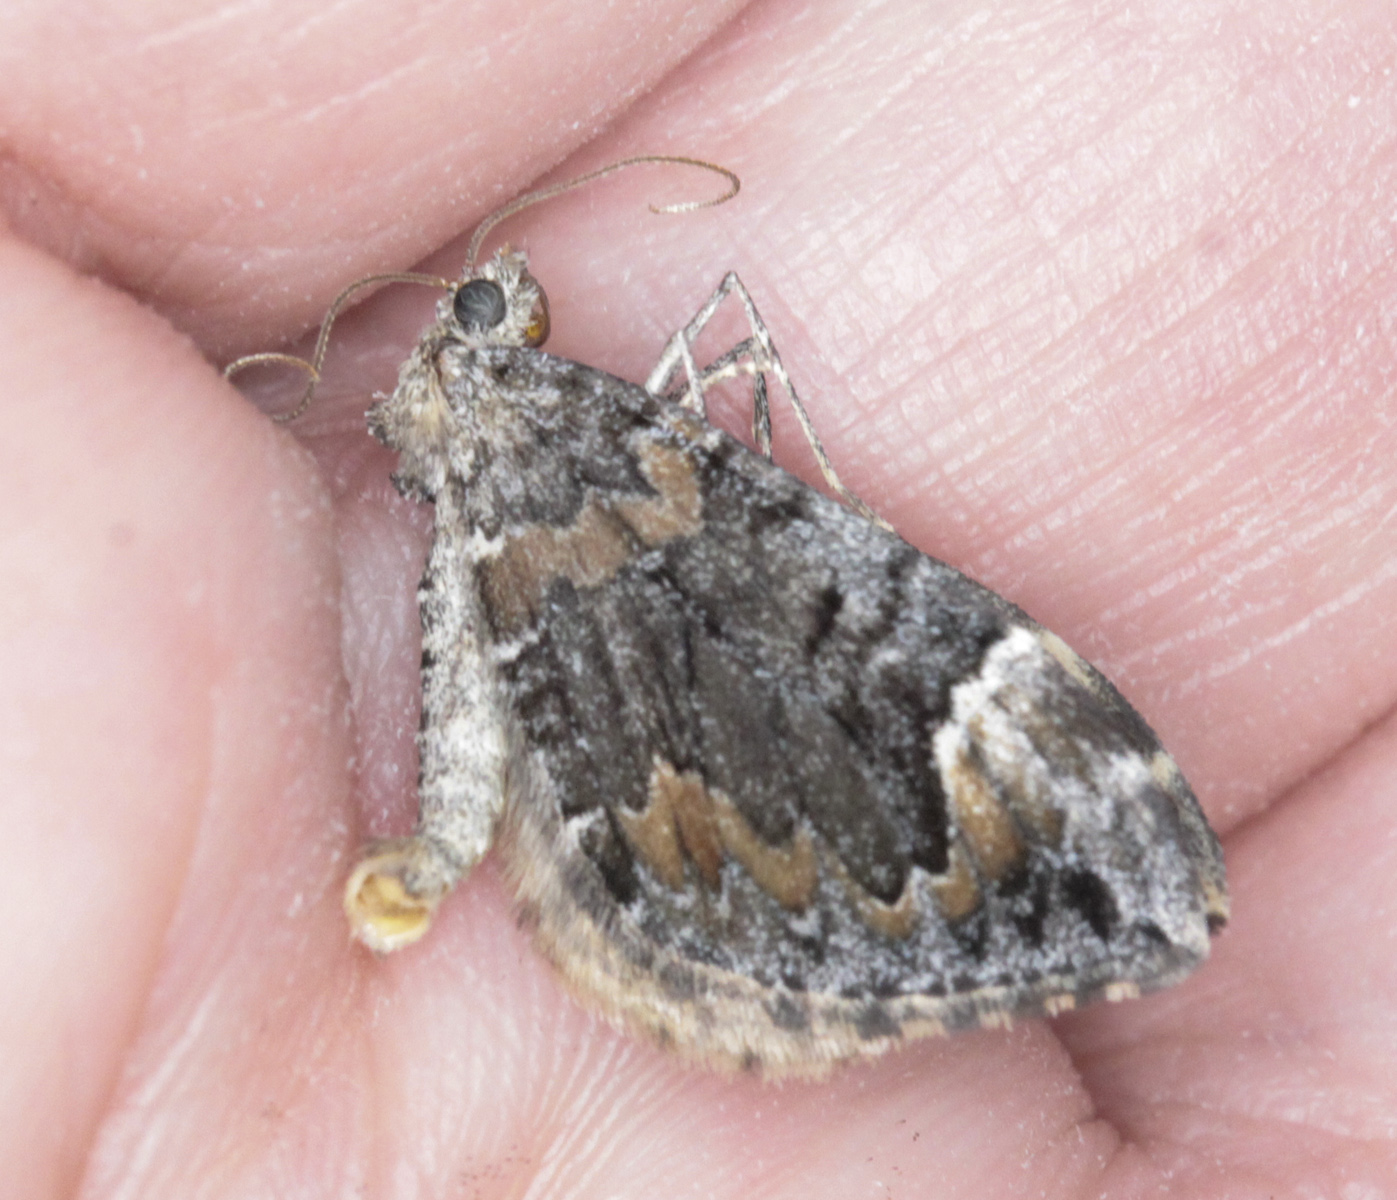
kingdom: Animalia
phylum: Arthropoda
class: Insecta
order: Lepidoptera
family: Geometridae
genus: Dysstroma
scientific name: Dysstroma citrata
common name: Dark marbled carpet
